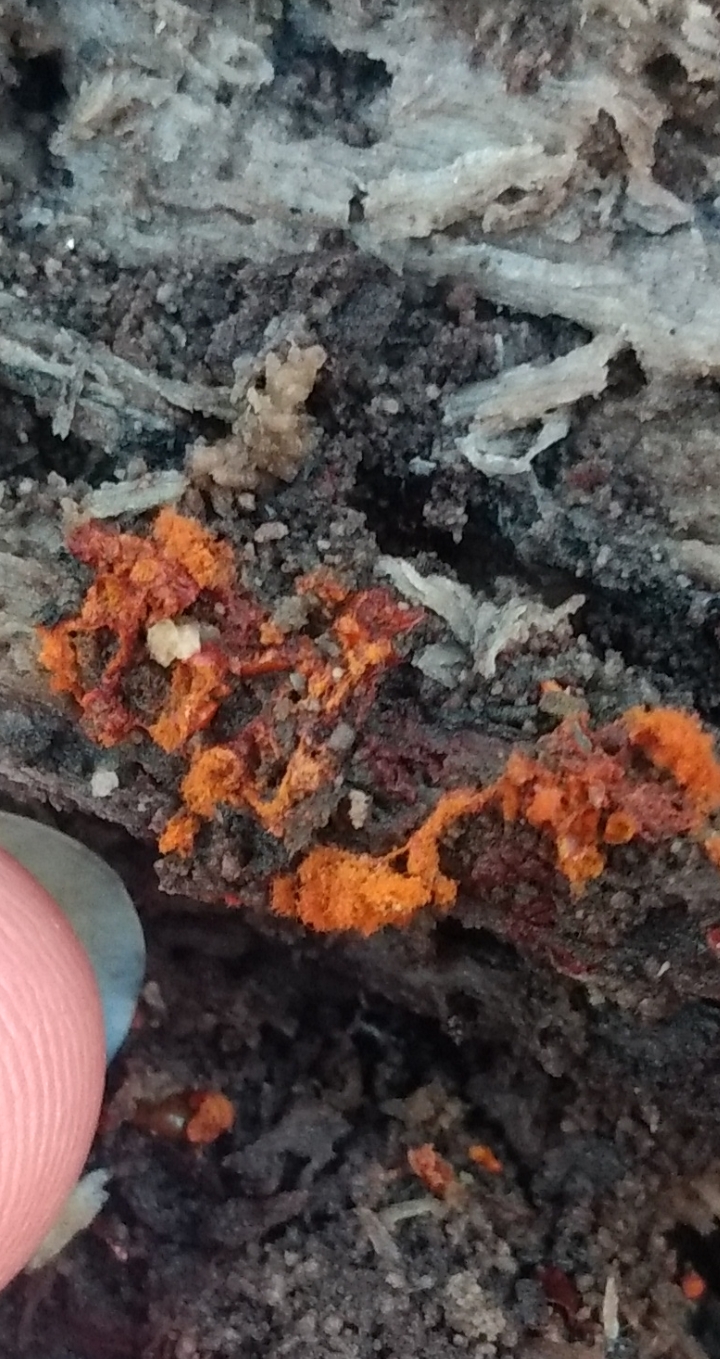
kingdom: Protozoa
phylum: Mycetozoa
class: Myxomycetes
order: Trichiales
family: Trichiaceae
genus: Metatrichia
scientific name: Metatrichia vesparia
